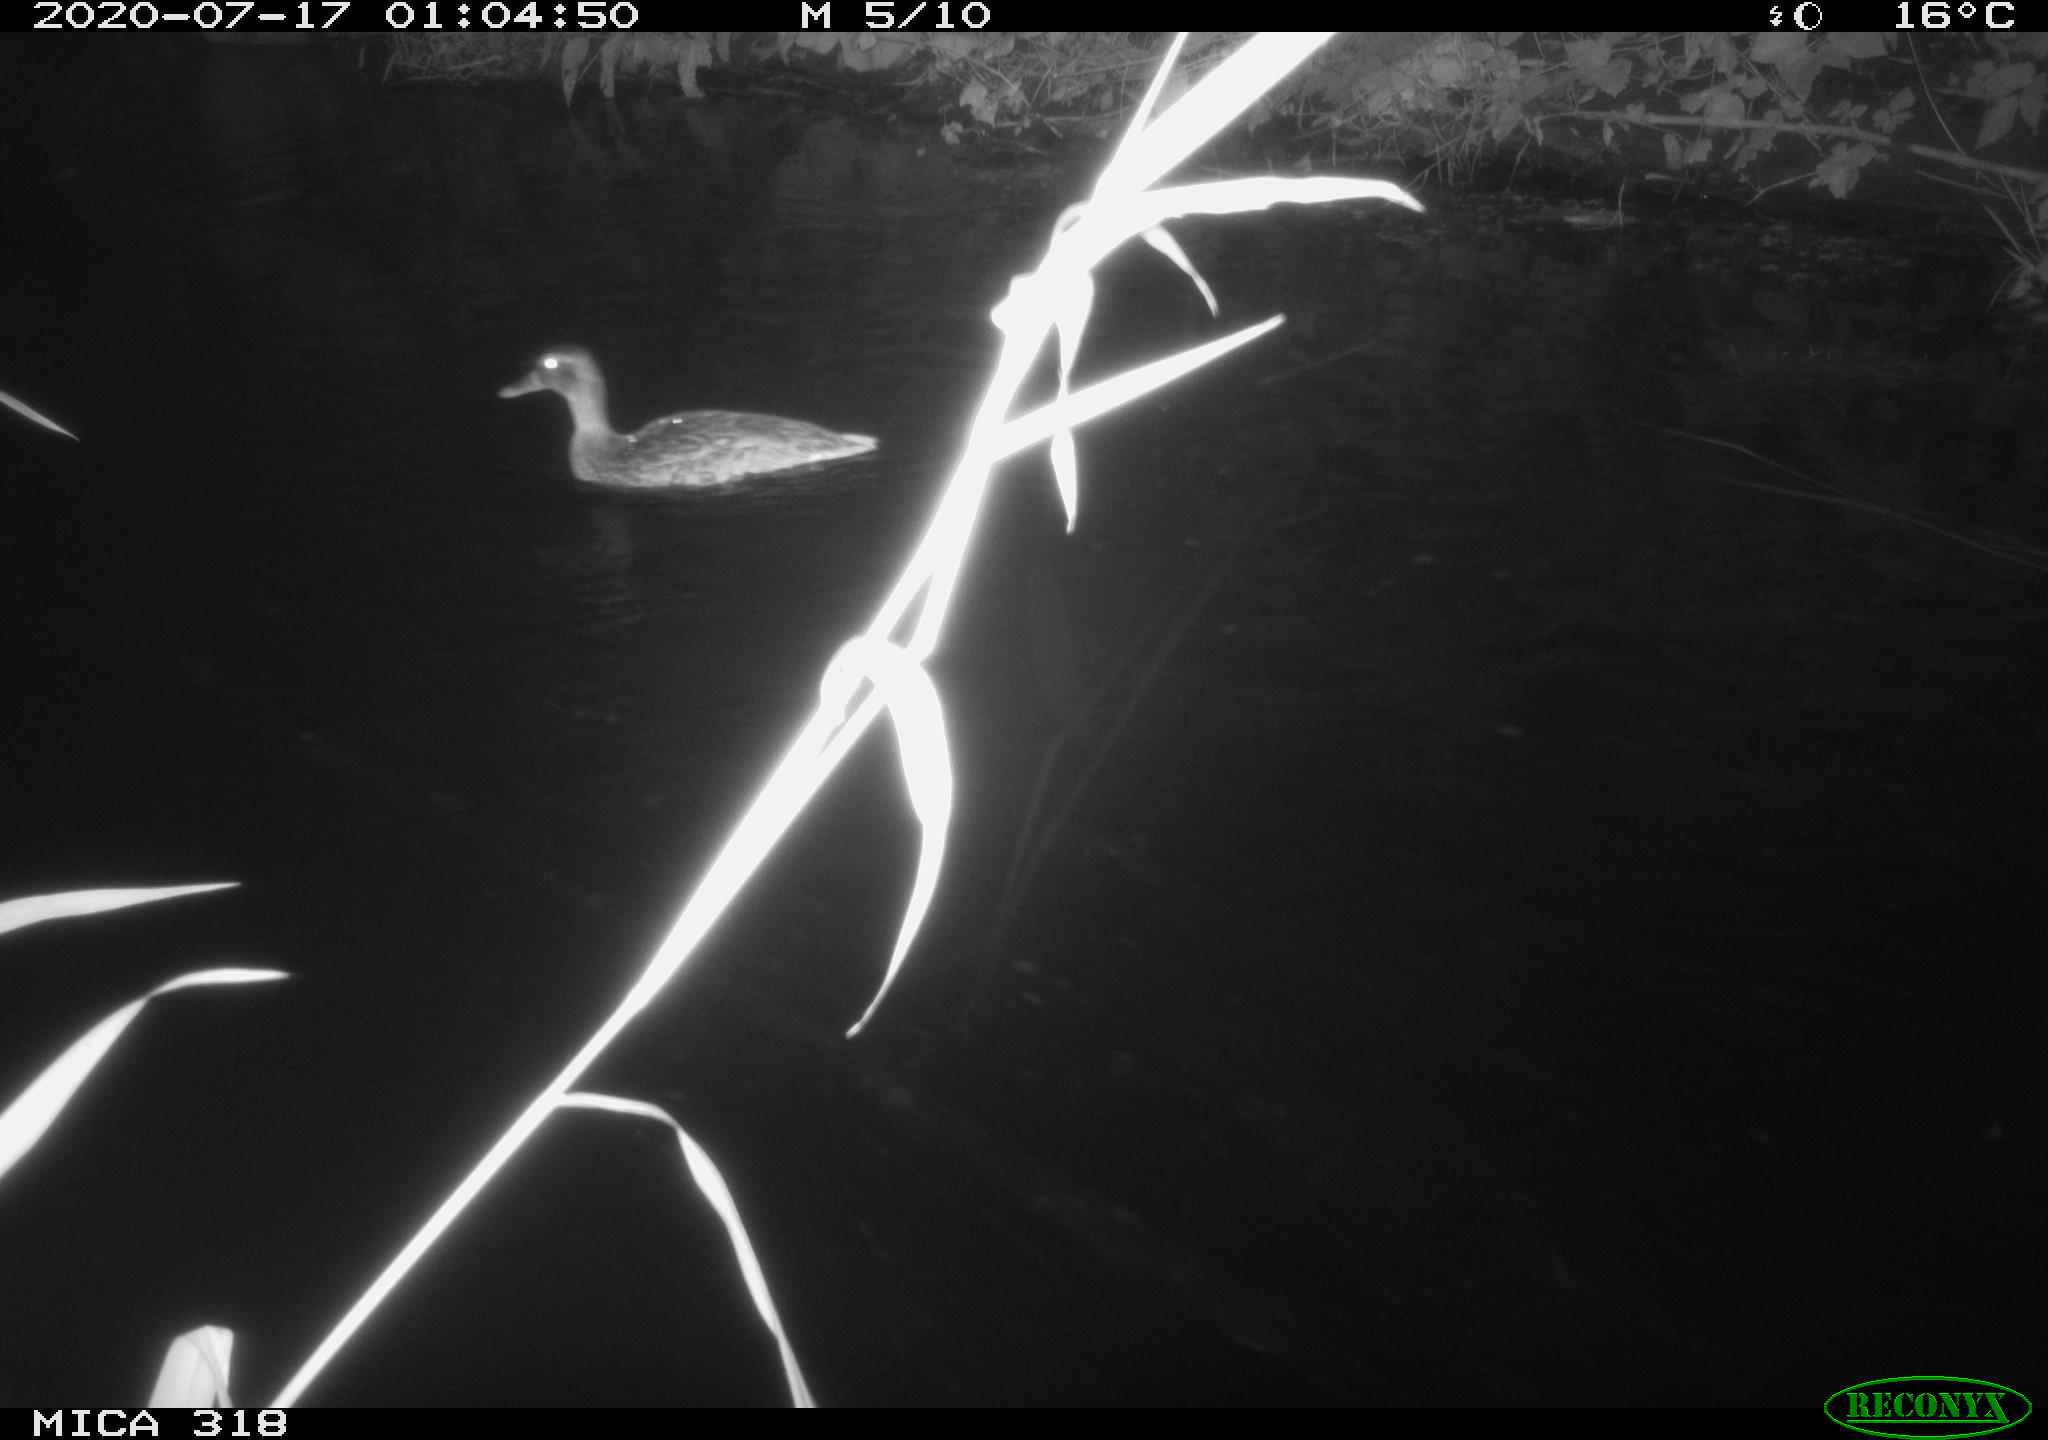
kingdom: Animalia
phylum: Chordata
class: Aves
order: Anseriformes
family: Anatidae
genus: Mareca
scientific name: Mareca strepera
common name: Gadwall
